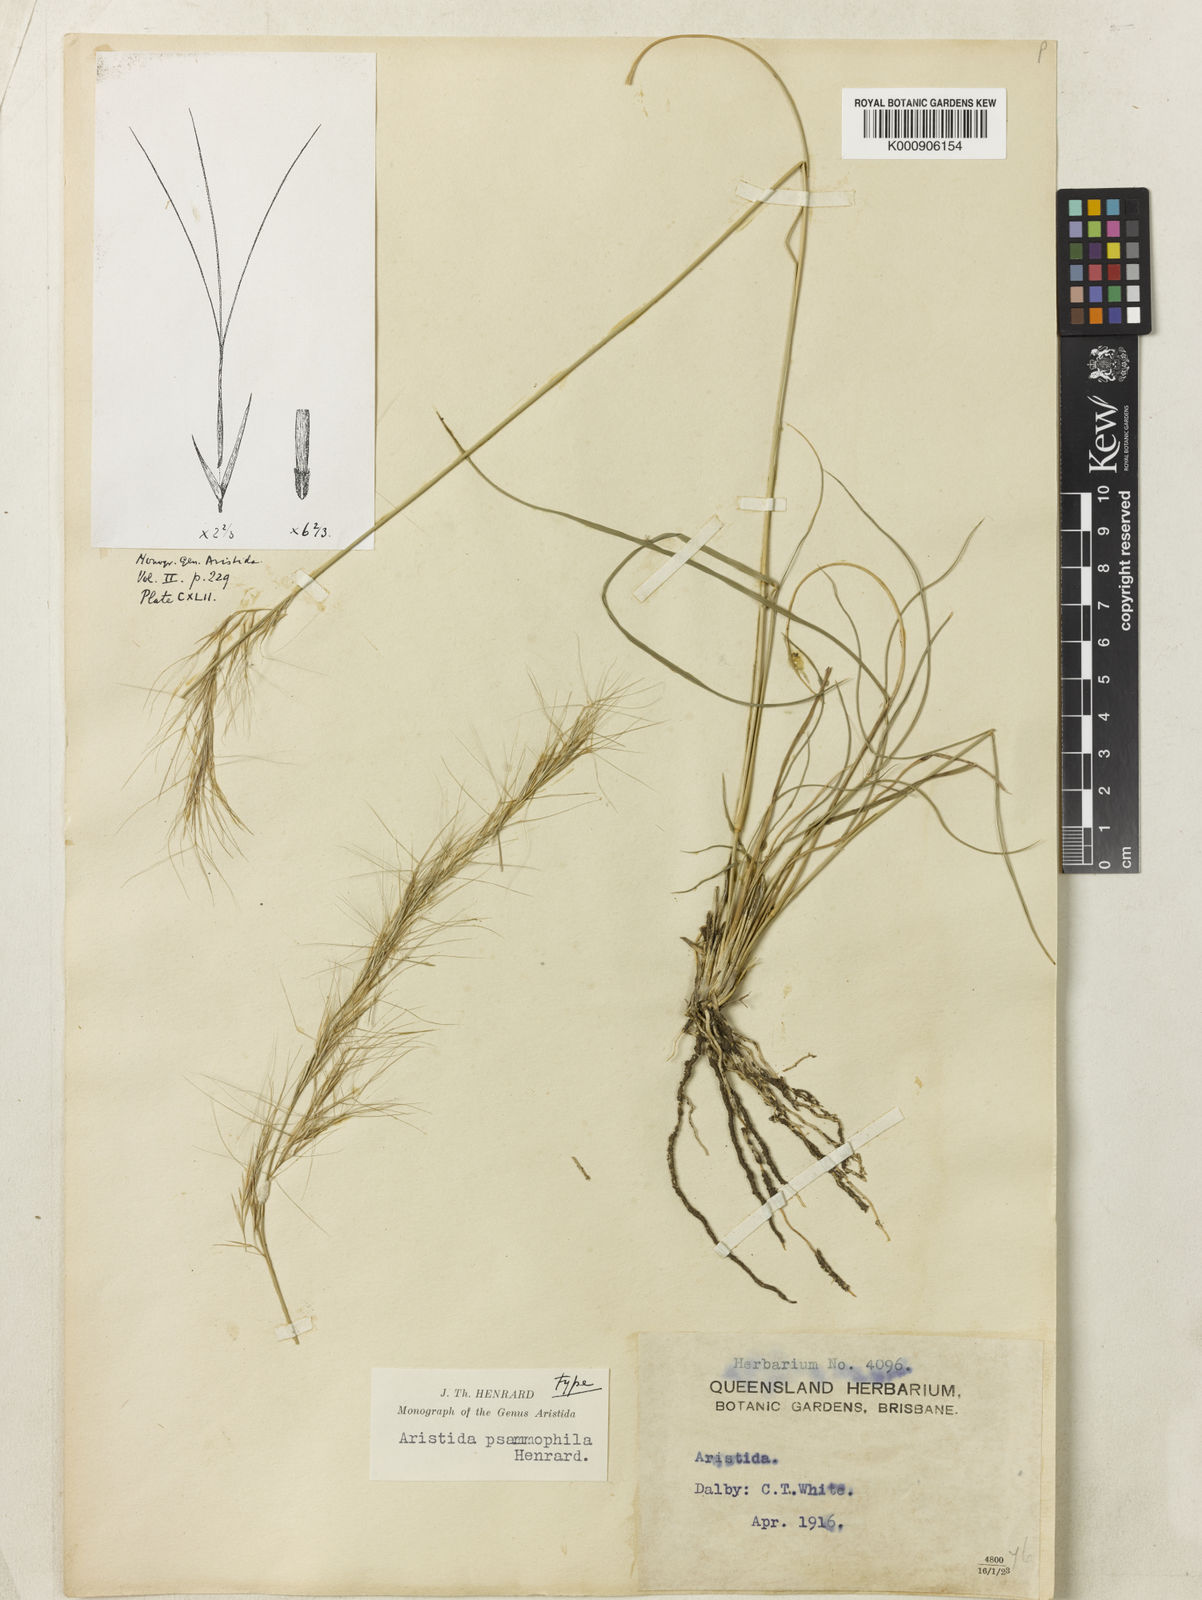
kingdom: Plantae
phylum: Tracheophyta
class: Liliopsida
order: Poales
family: Poaceae
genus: Aristida
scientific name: Aristida psammophila
